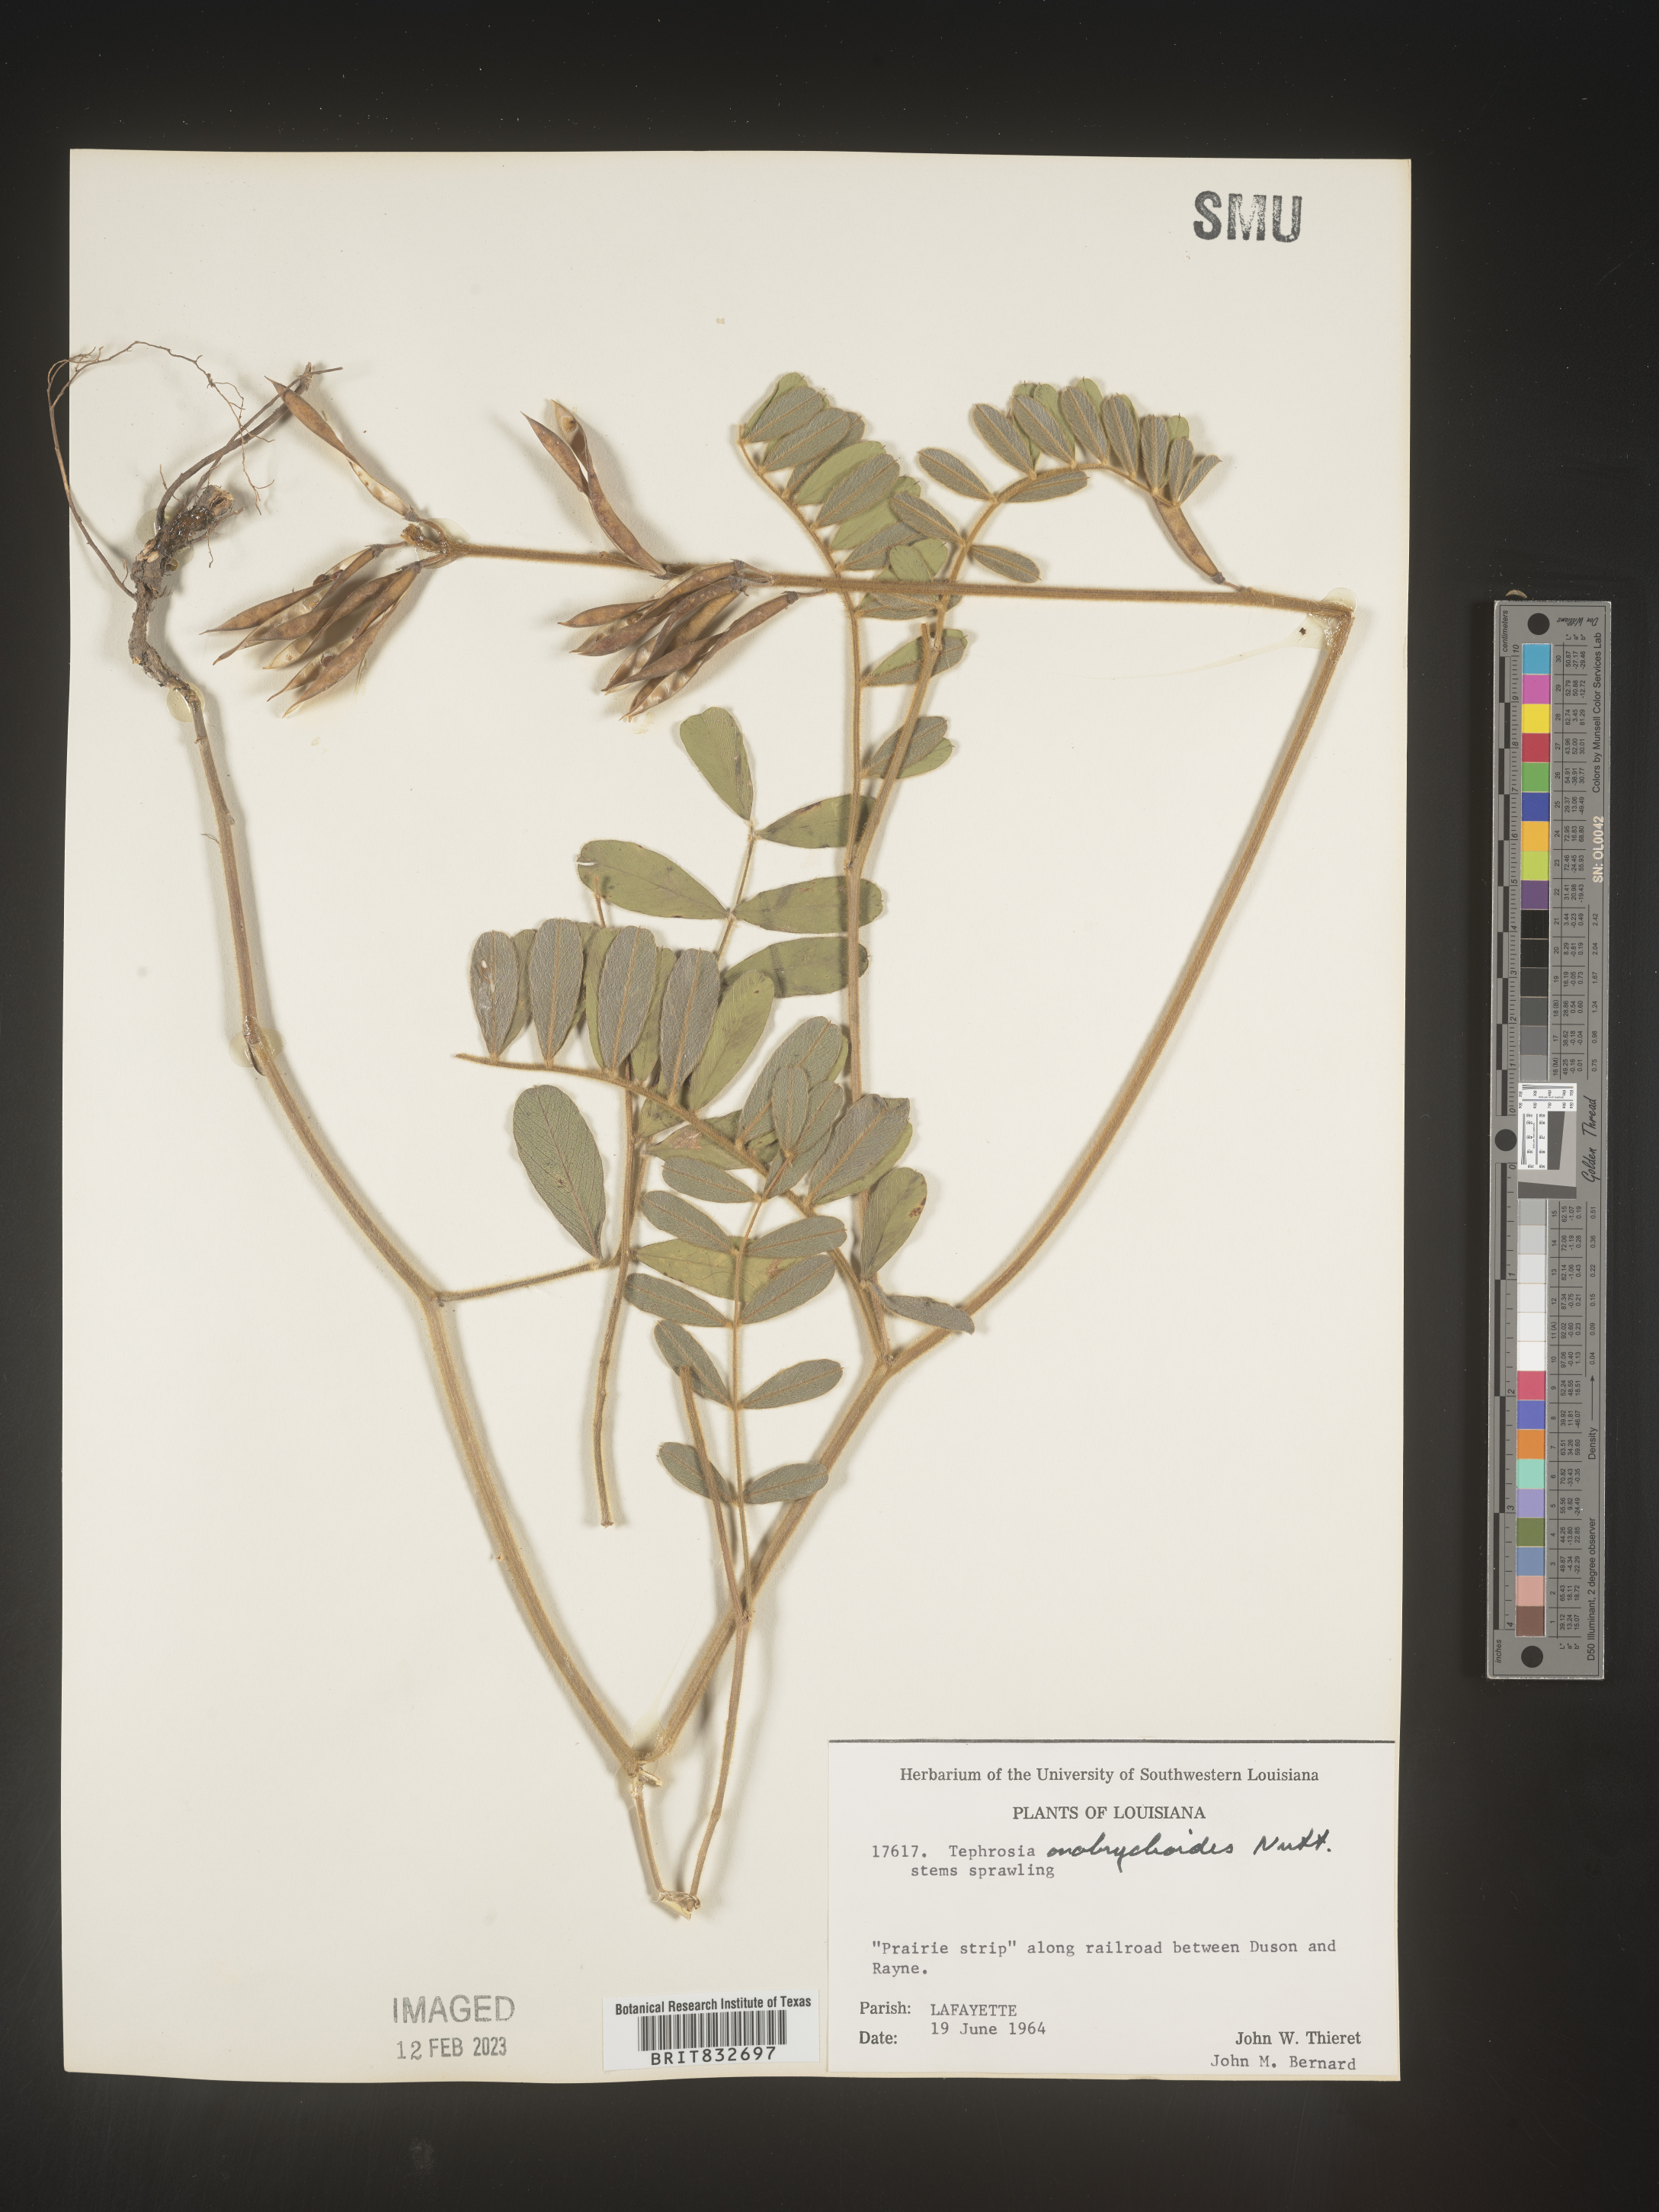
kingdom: Plantae
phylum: Tracheophyta
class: Magnoliopsida
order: Fabales
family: Fabaceae
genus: Tephrosia
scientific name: Tephrosia onobrychoides
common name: Multi-bloom hoary-pea
